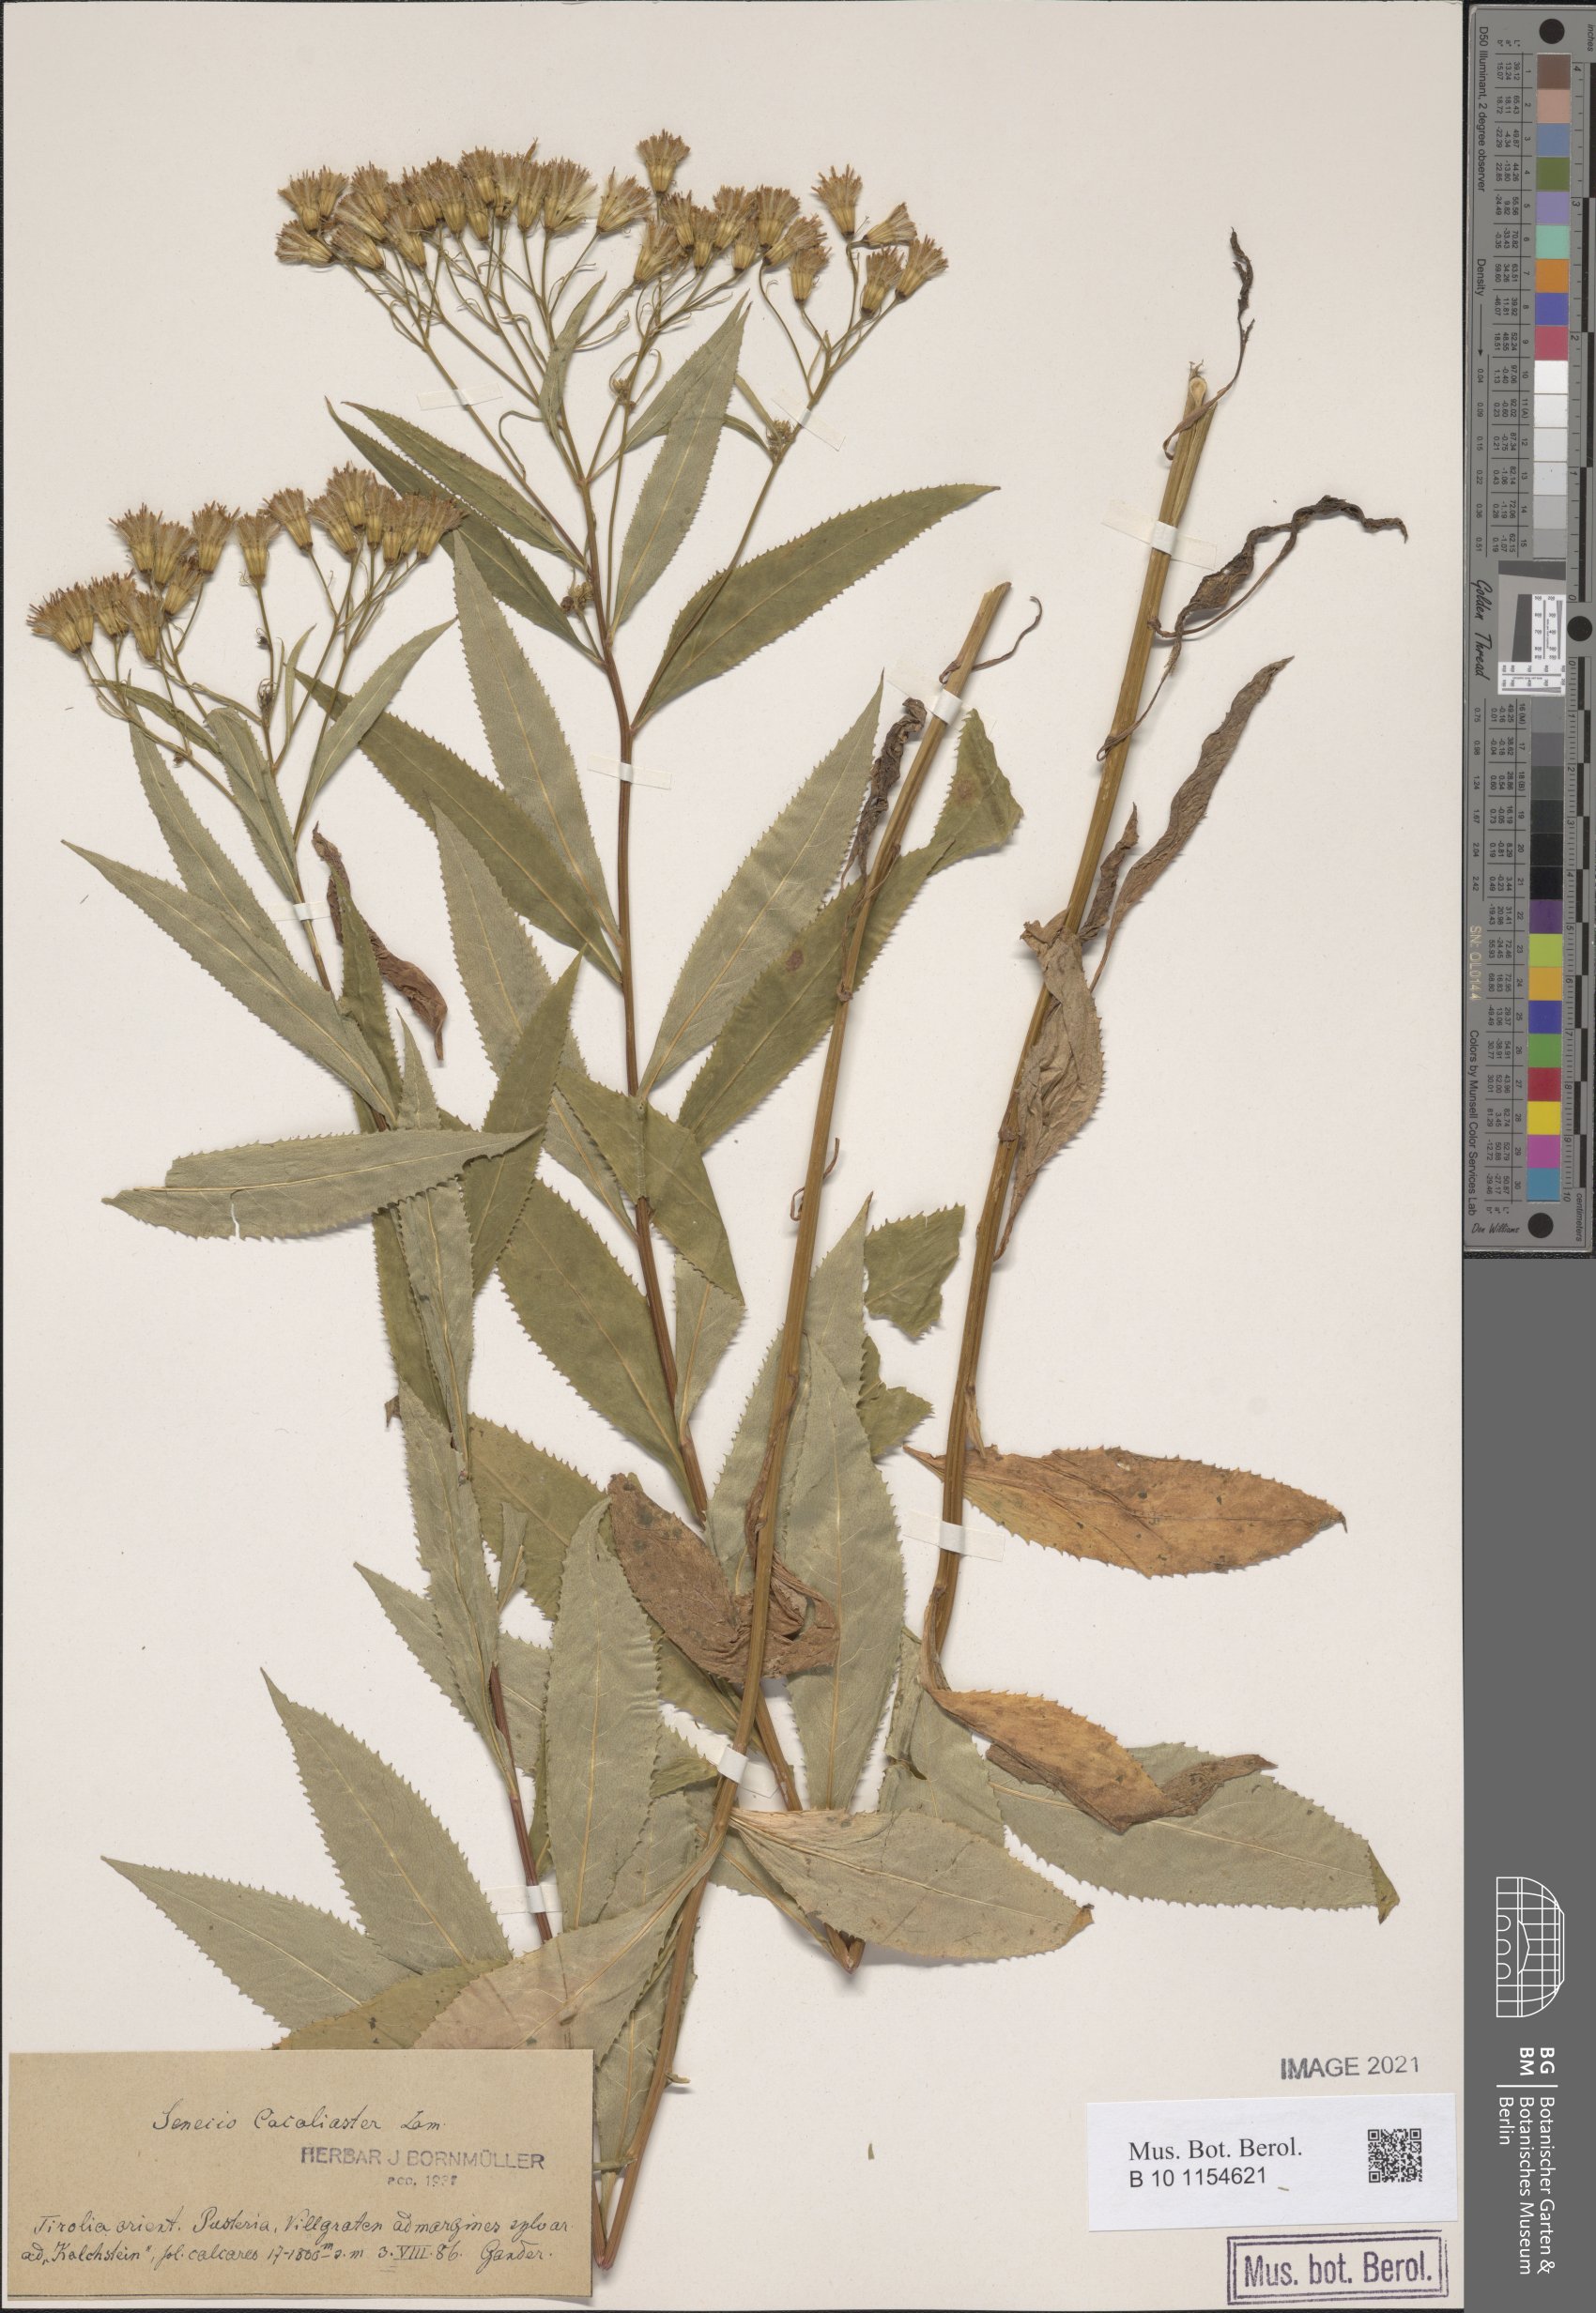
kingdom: Plantae
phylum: Tracheophyta
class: Magnoliopsida
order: Asterales
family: Asteraceae
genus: Senecio
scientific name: Senecio cacaliaster
